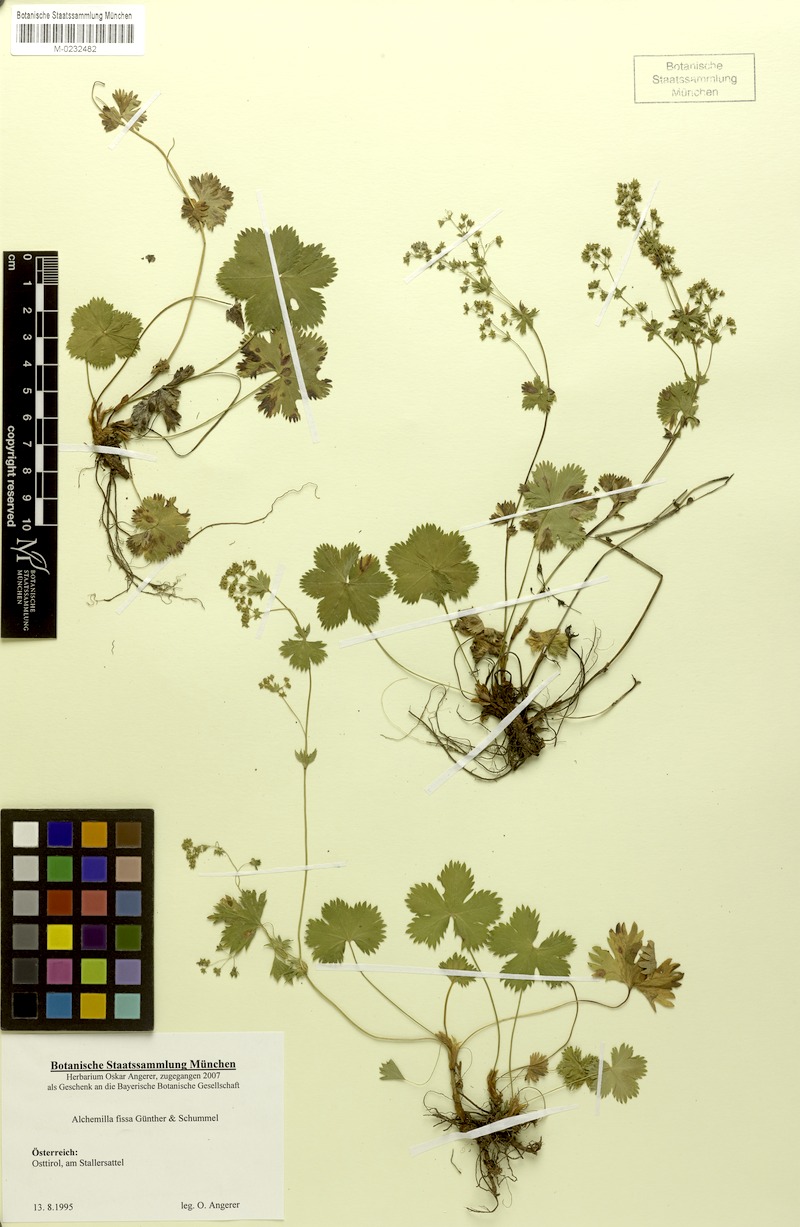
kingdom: Plantae
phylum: Tracheophyta
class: Magnoliopsida
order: Rosales
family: Rosaceae
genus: Alchemilla
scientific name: Alchemilla fissa
